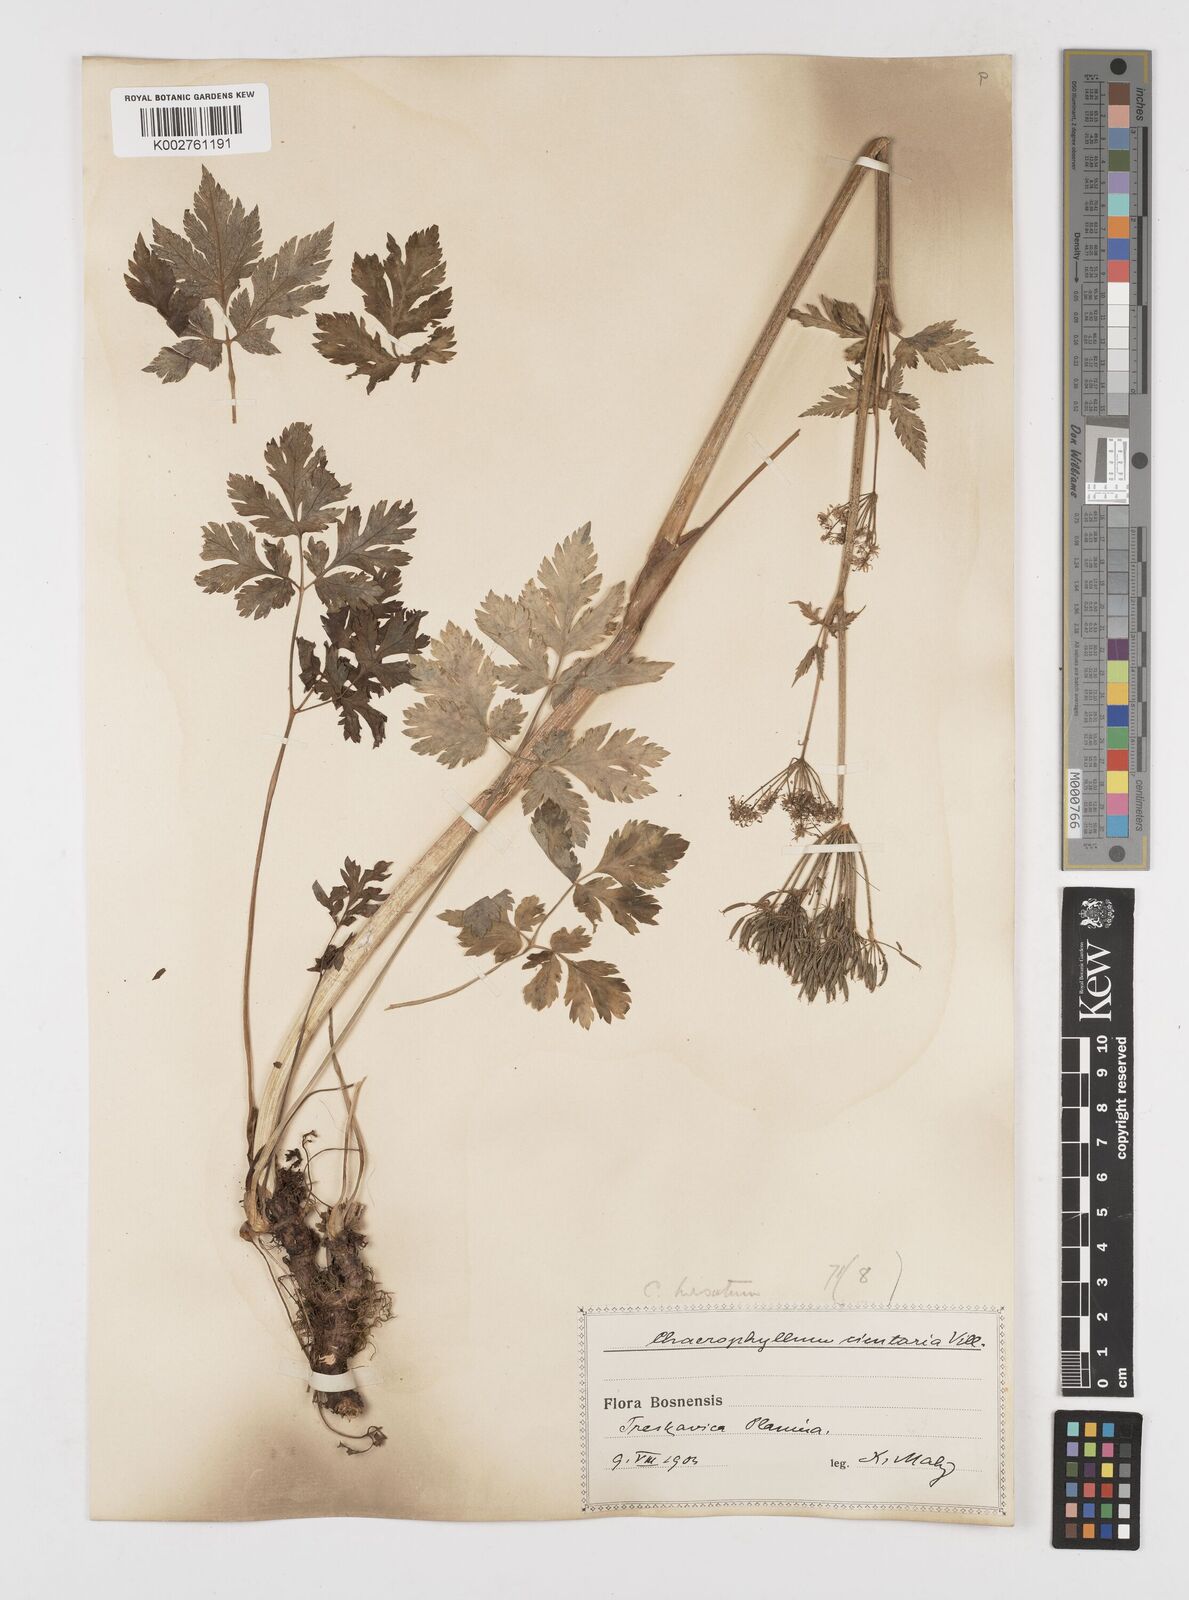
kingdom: Plantae
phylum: Tracheophyta
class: Magnoliopsida
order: Apiales
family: Apiaceae
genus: Chaerophyllum
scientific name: Chaerophyllum hirsutum
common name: Hairy chervil
